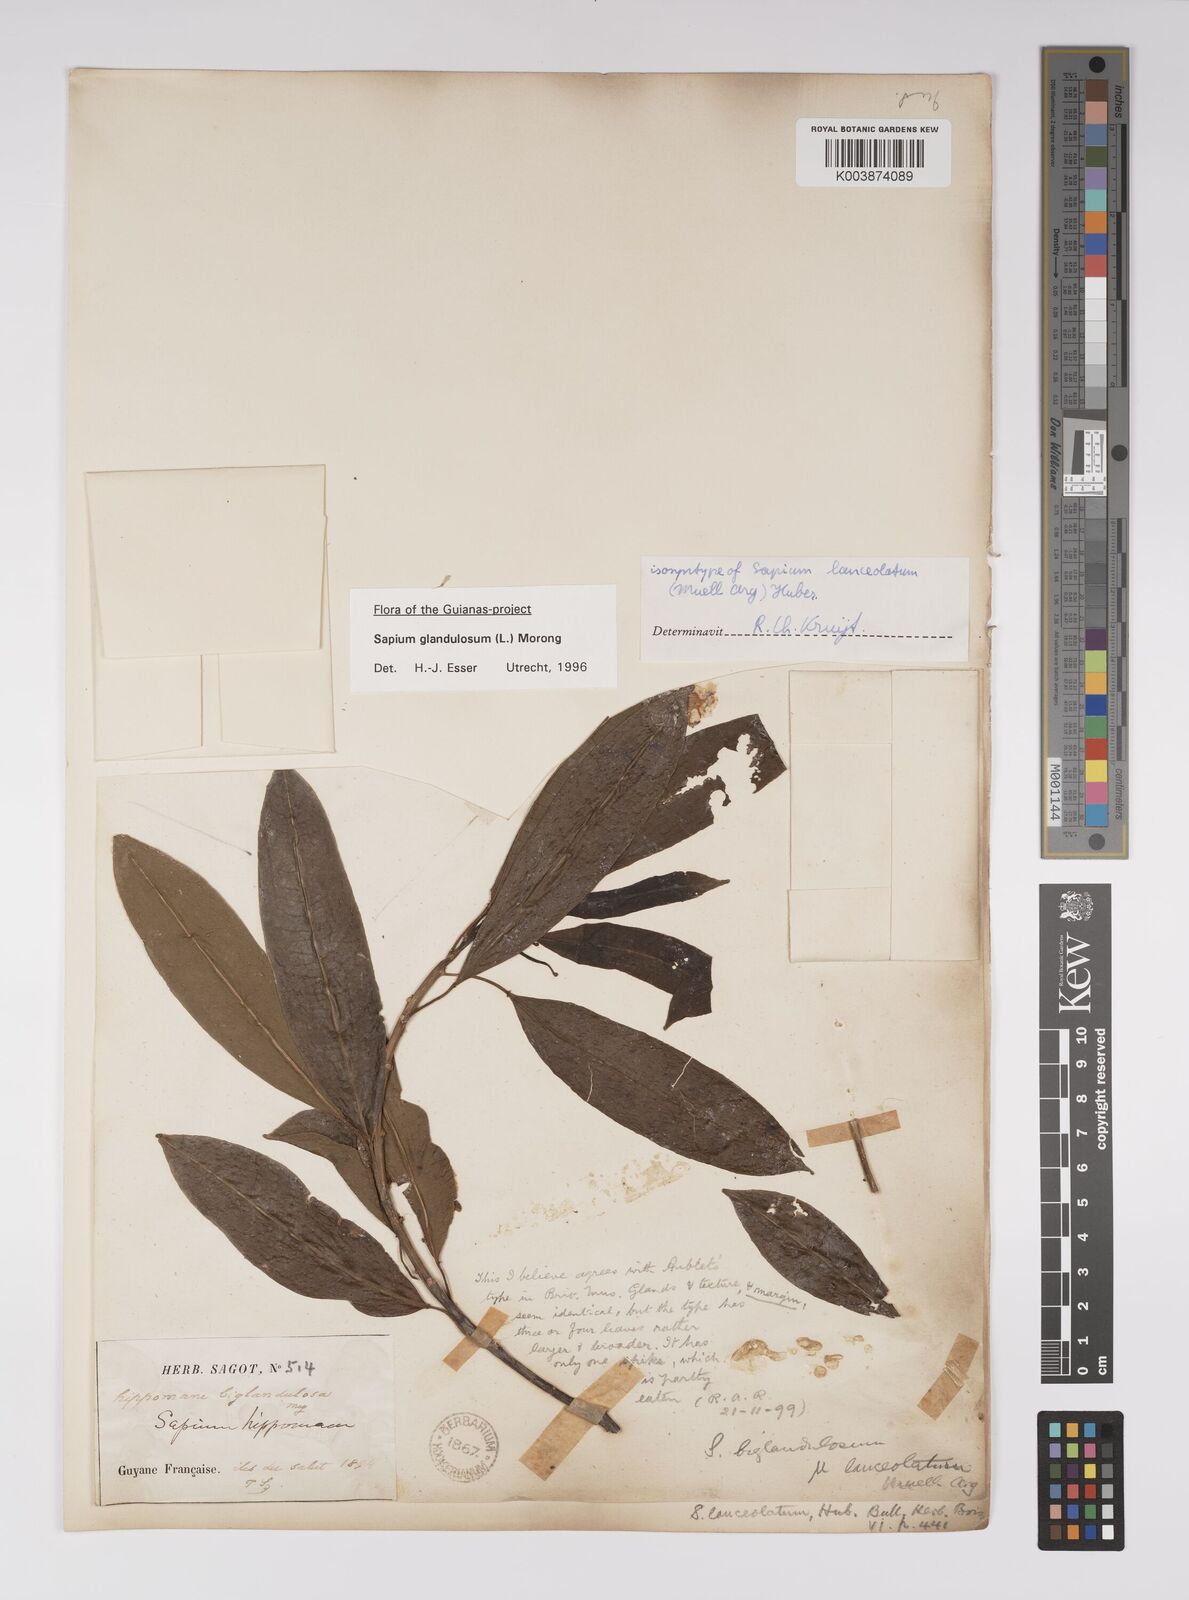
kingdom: Plantae
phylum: Tracheophyta
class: Magnoliopsida
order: Malpighiales
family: Euphorbiaceae
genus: Sapium
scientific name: Sapium glandulosum
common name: Milktree
